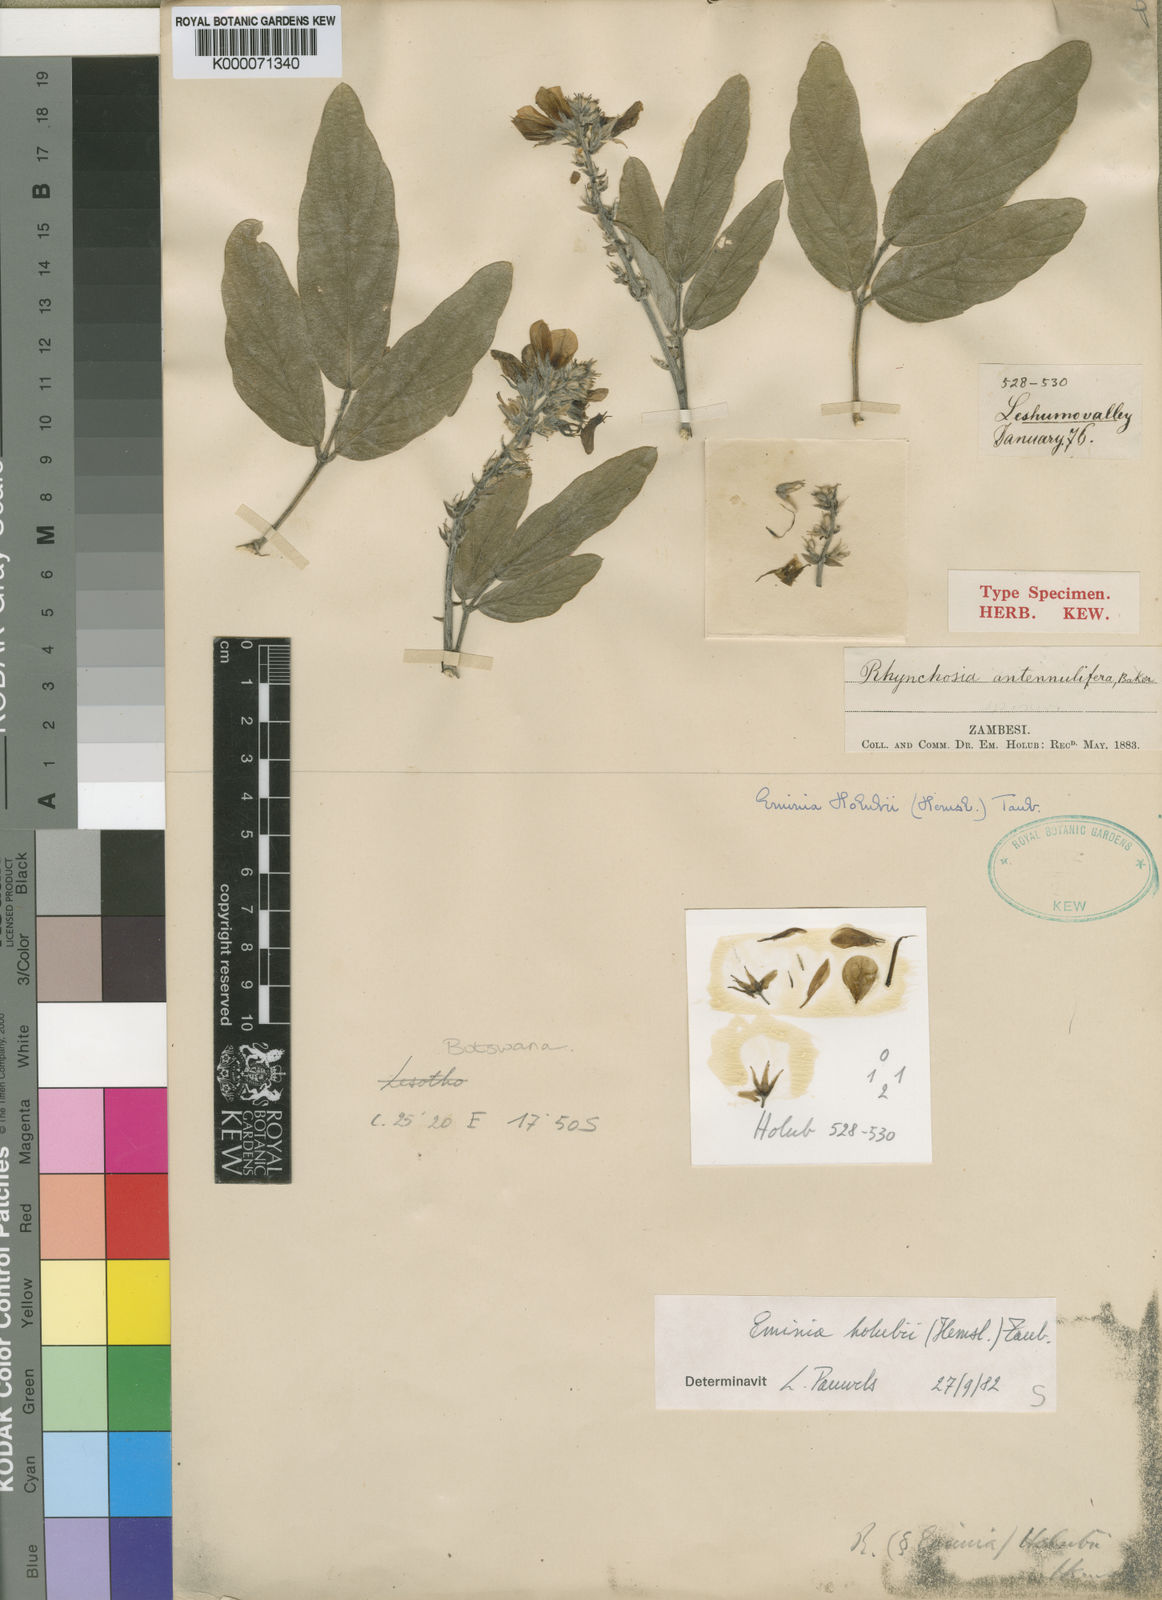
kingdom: Plantae
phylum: Tracheophyta
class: Magnoliopsida
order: Fabales
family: Fabaceae
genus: Eminia
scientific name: Eminia holubii
